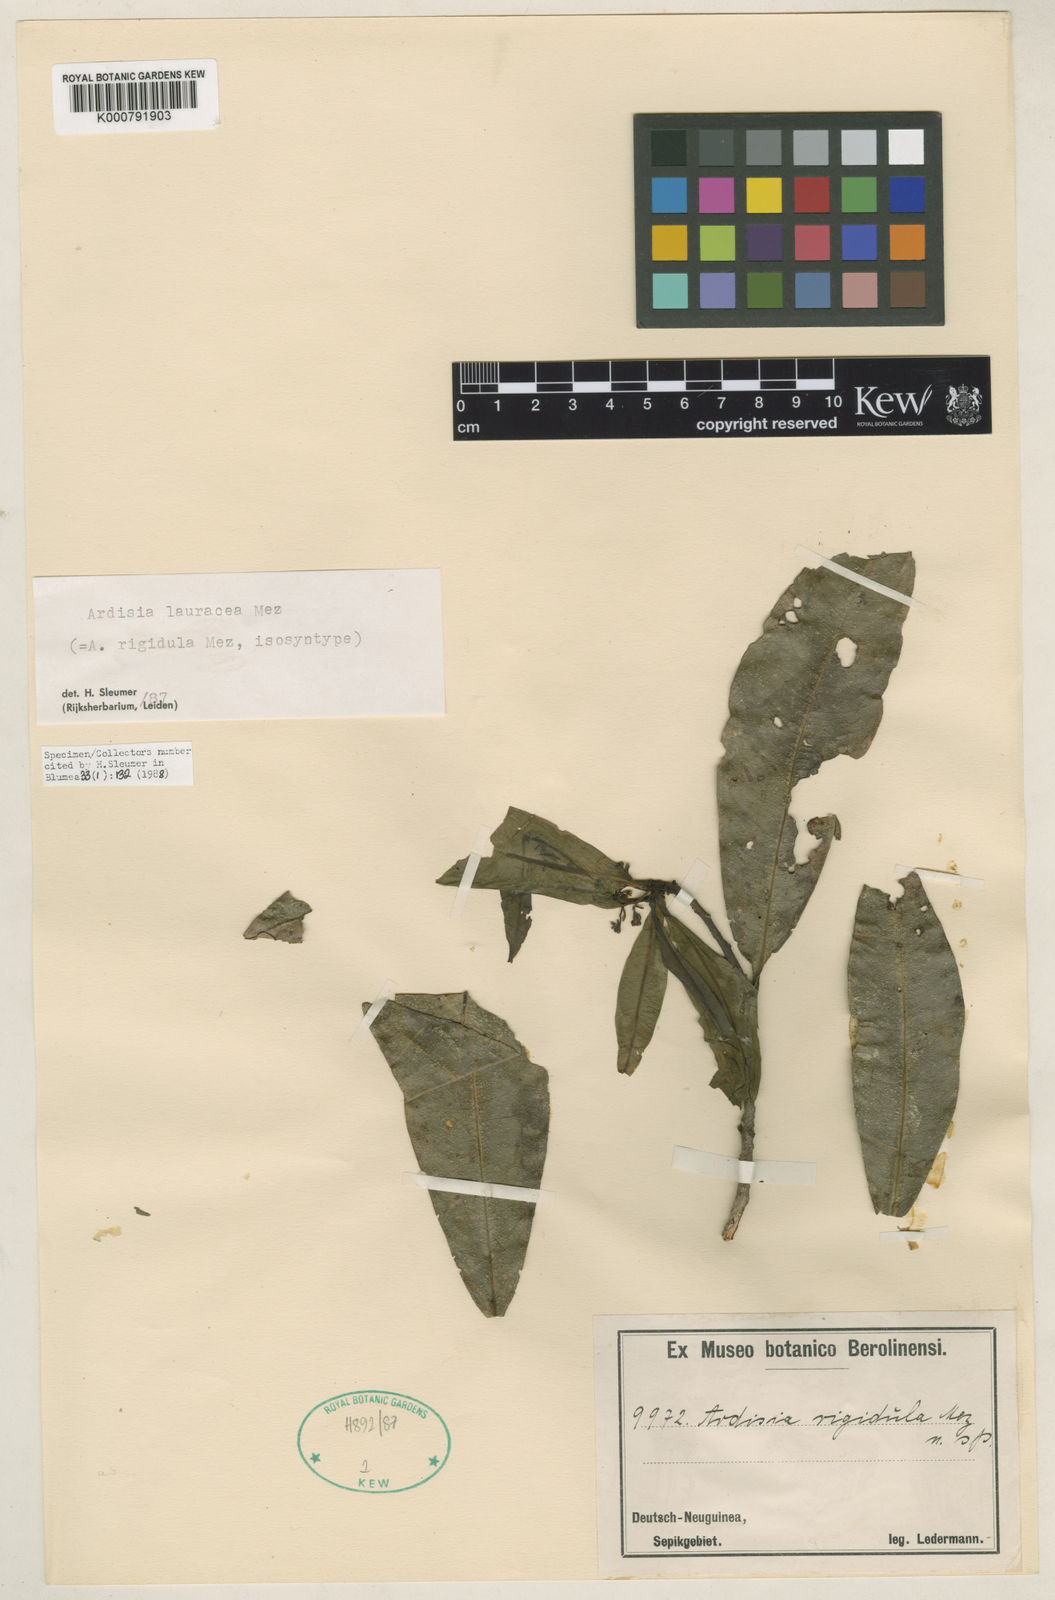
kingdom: Plantae
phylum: Tracheophyta
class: Magnoliopsida
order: Ericales
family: Primulaceae
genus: Ardisia
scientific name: Ardisia lauracea
